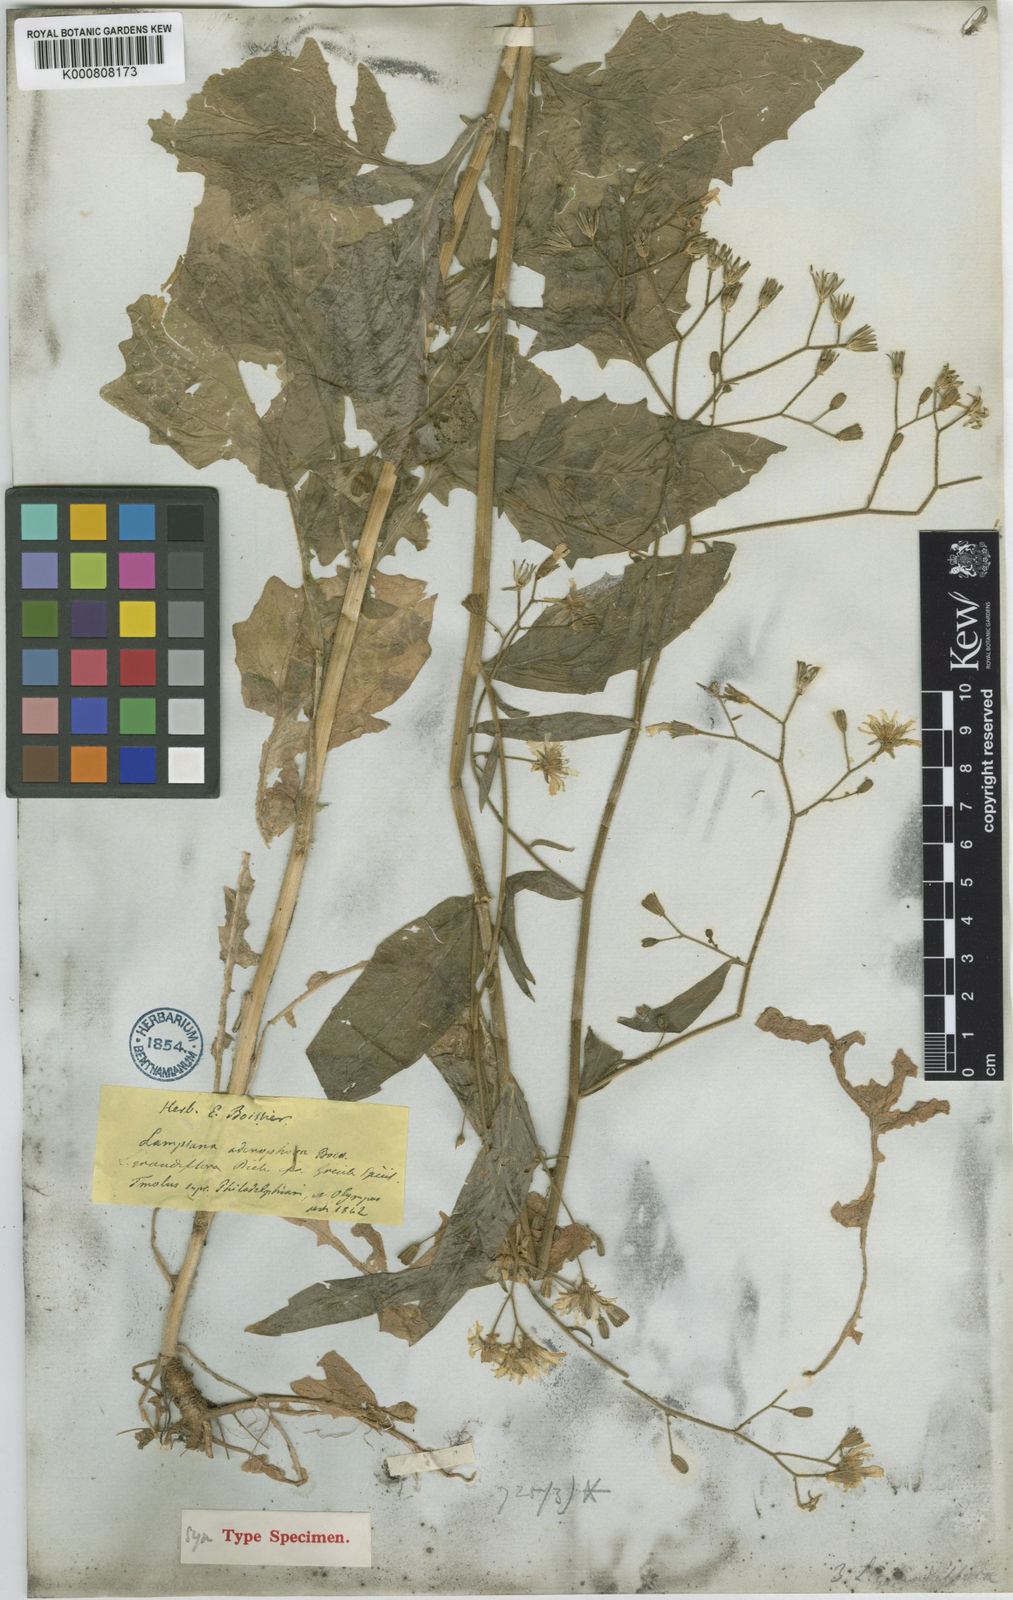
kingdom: Plantae
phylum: Tracheophyta
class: Magnoliopsida
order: Asterales
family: Asteraceae
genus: Lapsana
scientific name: Lapsana communis
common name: Nipplewort
